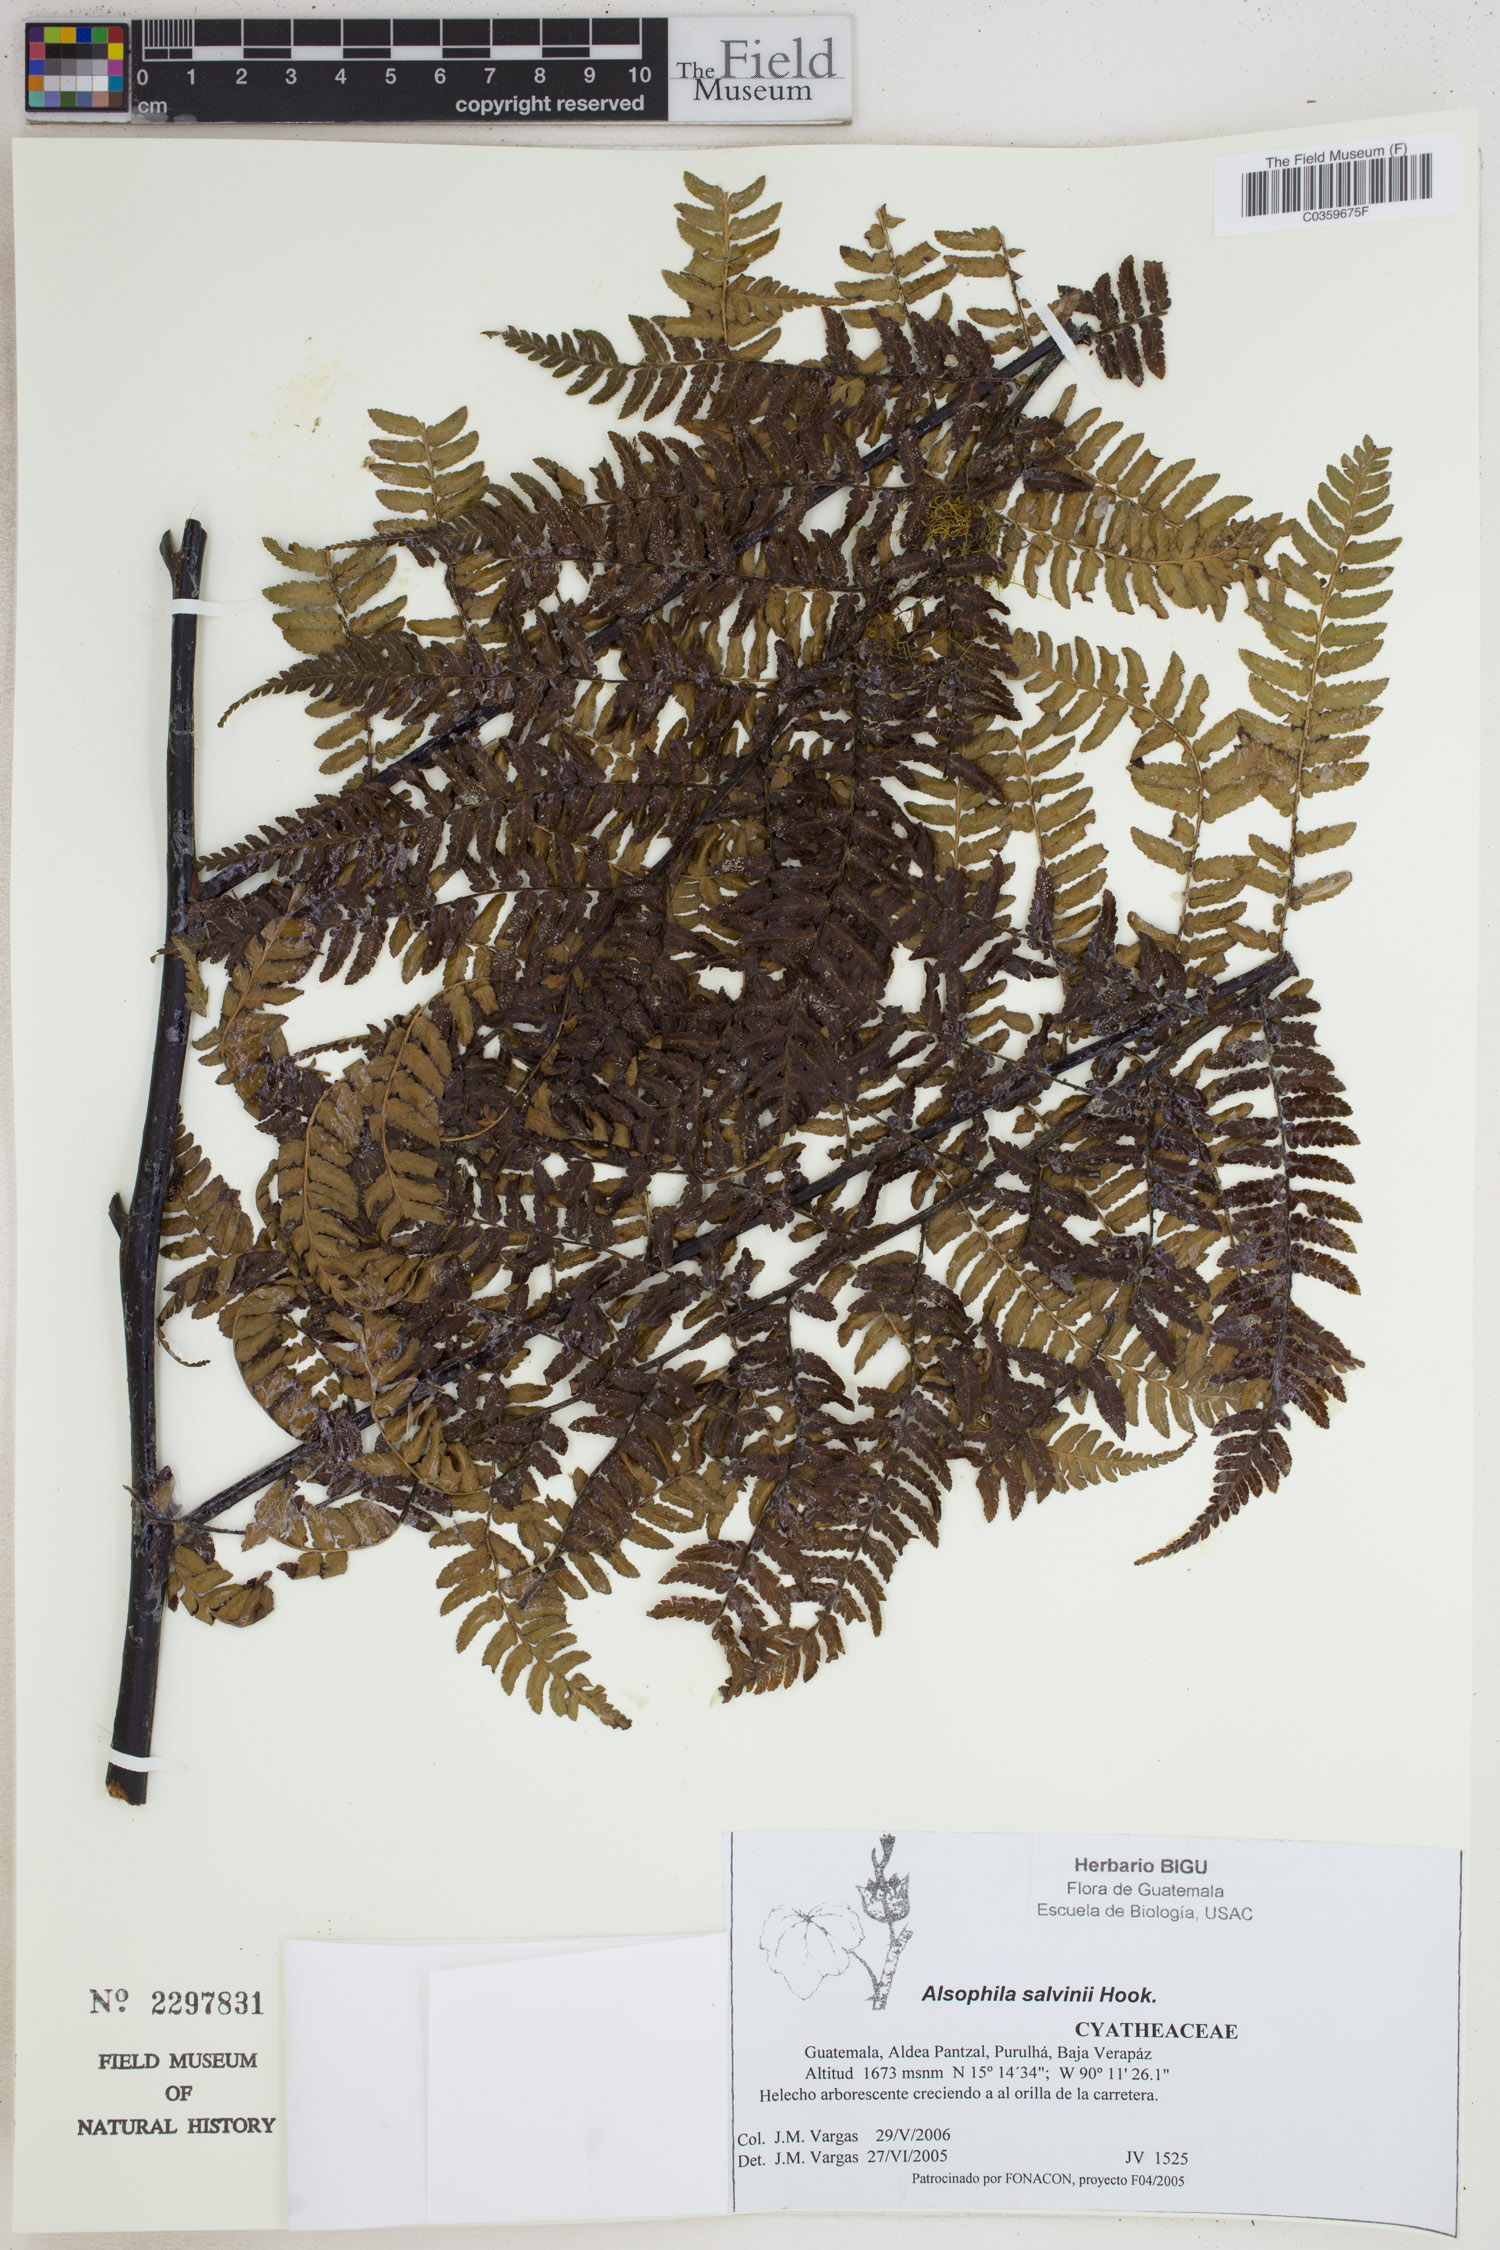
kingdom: Plantae
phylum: Tracheophyta
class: Polypodiopsida
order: Cyatheales
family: Cyatheaceae
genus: Gymnosphaera
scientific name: Gymnosphaera salvinii
